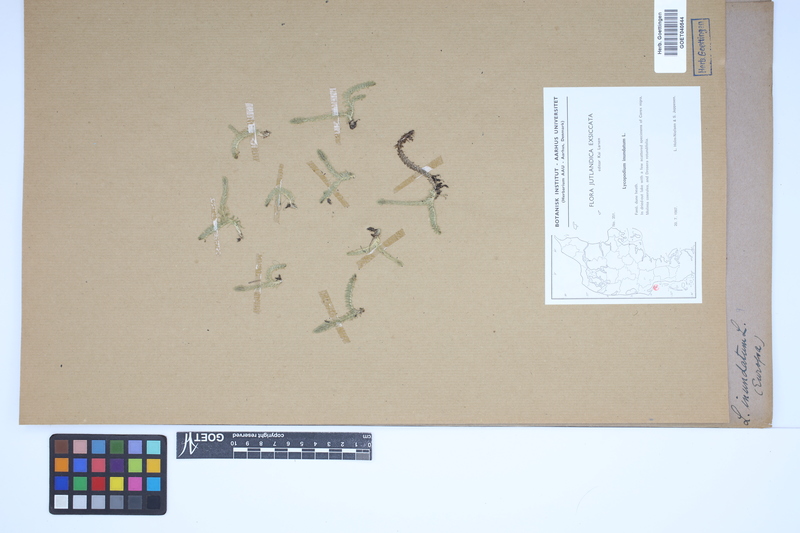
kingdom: Plantae
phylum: Tracheophyta
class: Lycopodiopsida
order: Lycopodiales
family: Lycopodiaceae
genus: Lycopodiella
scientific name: Lycopodiella inundata
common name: Marsh clubmoss
